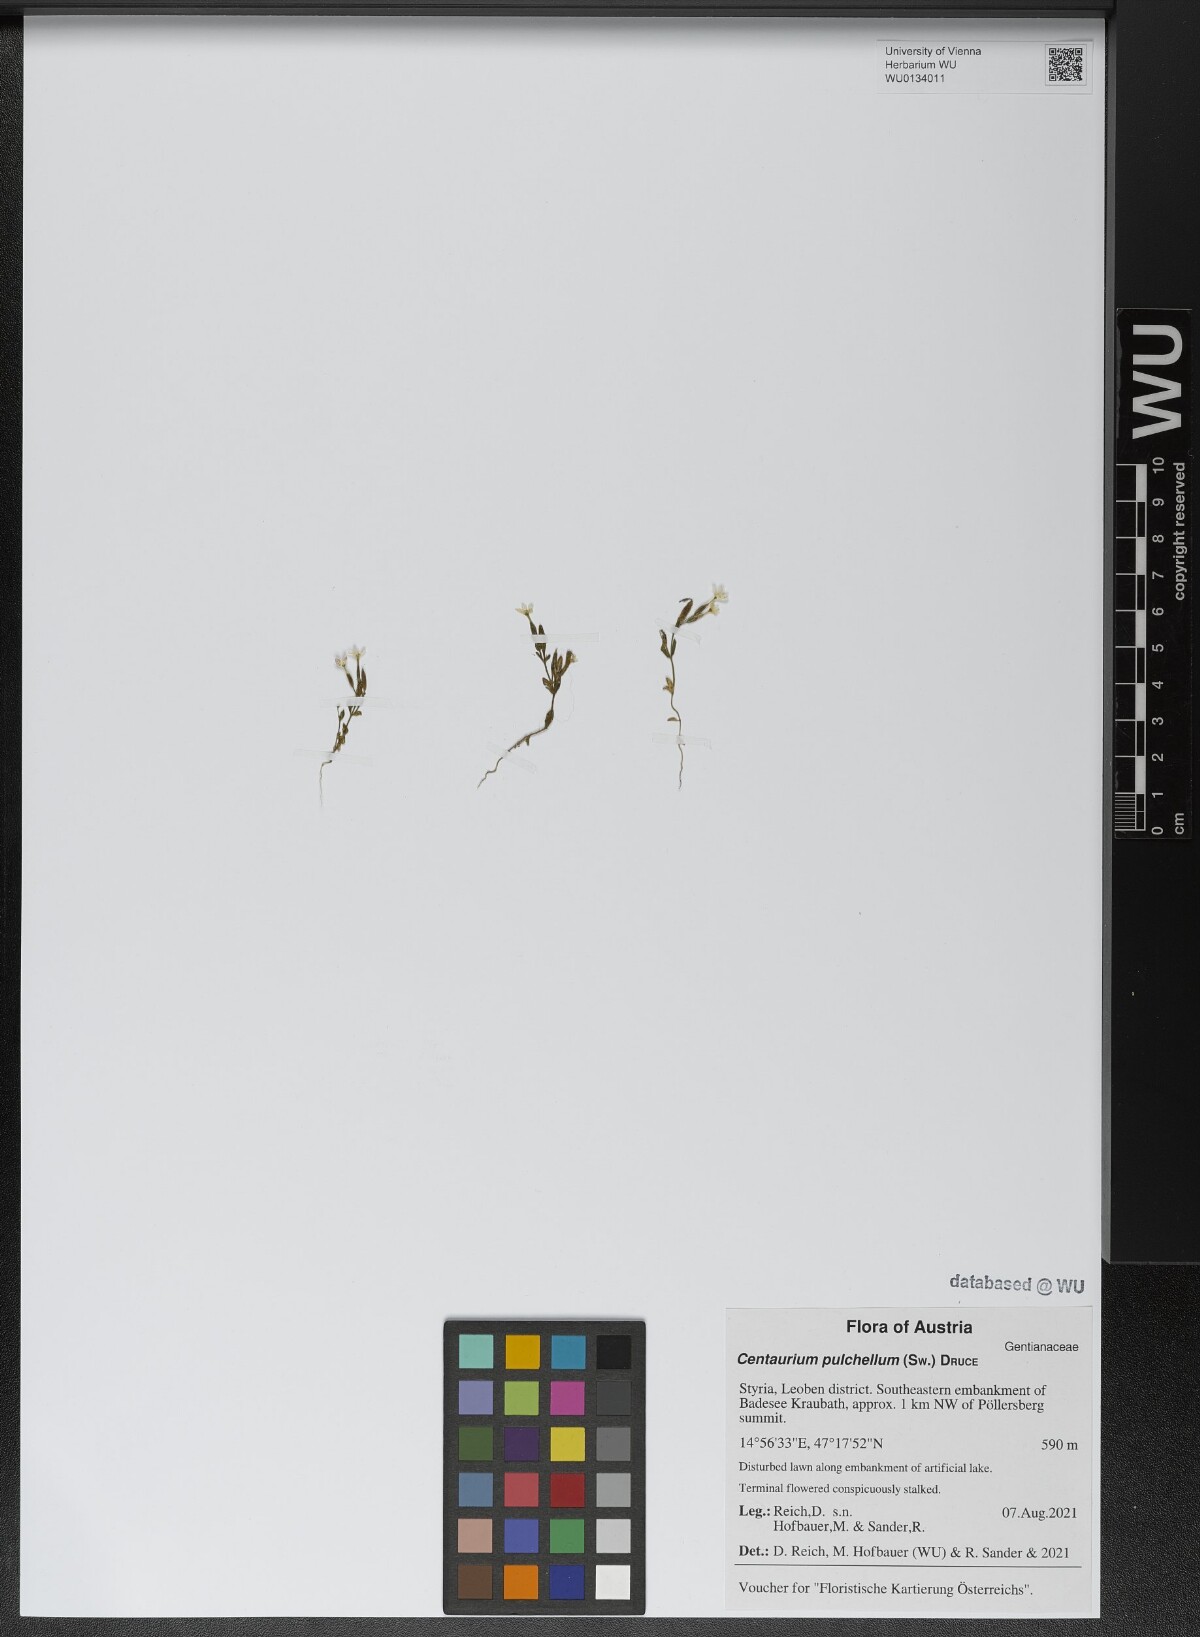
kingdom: Plantae
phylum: Tracheophyta
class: Magnoliopsida
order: Gentianales
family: Gentianaceae
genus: Centaurium
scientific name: Centaurium pulchellum
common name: Lesser centaury
